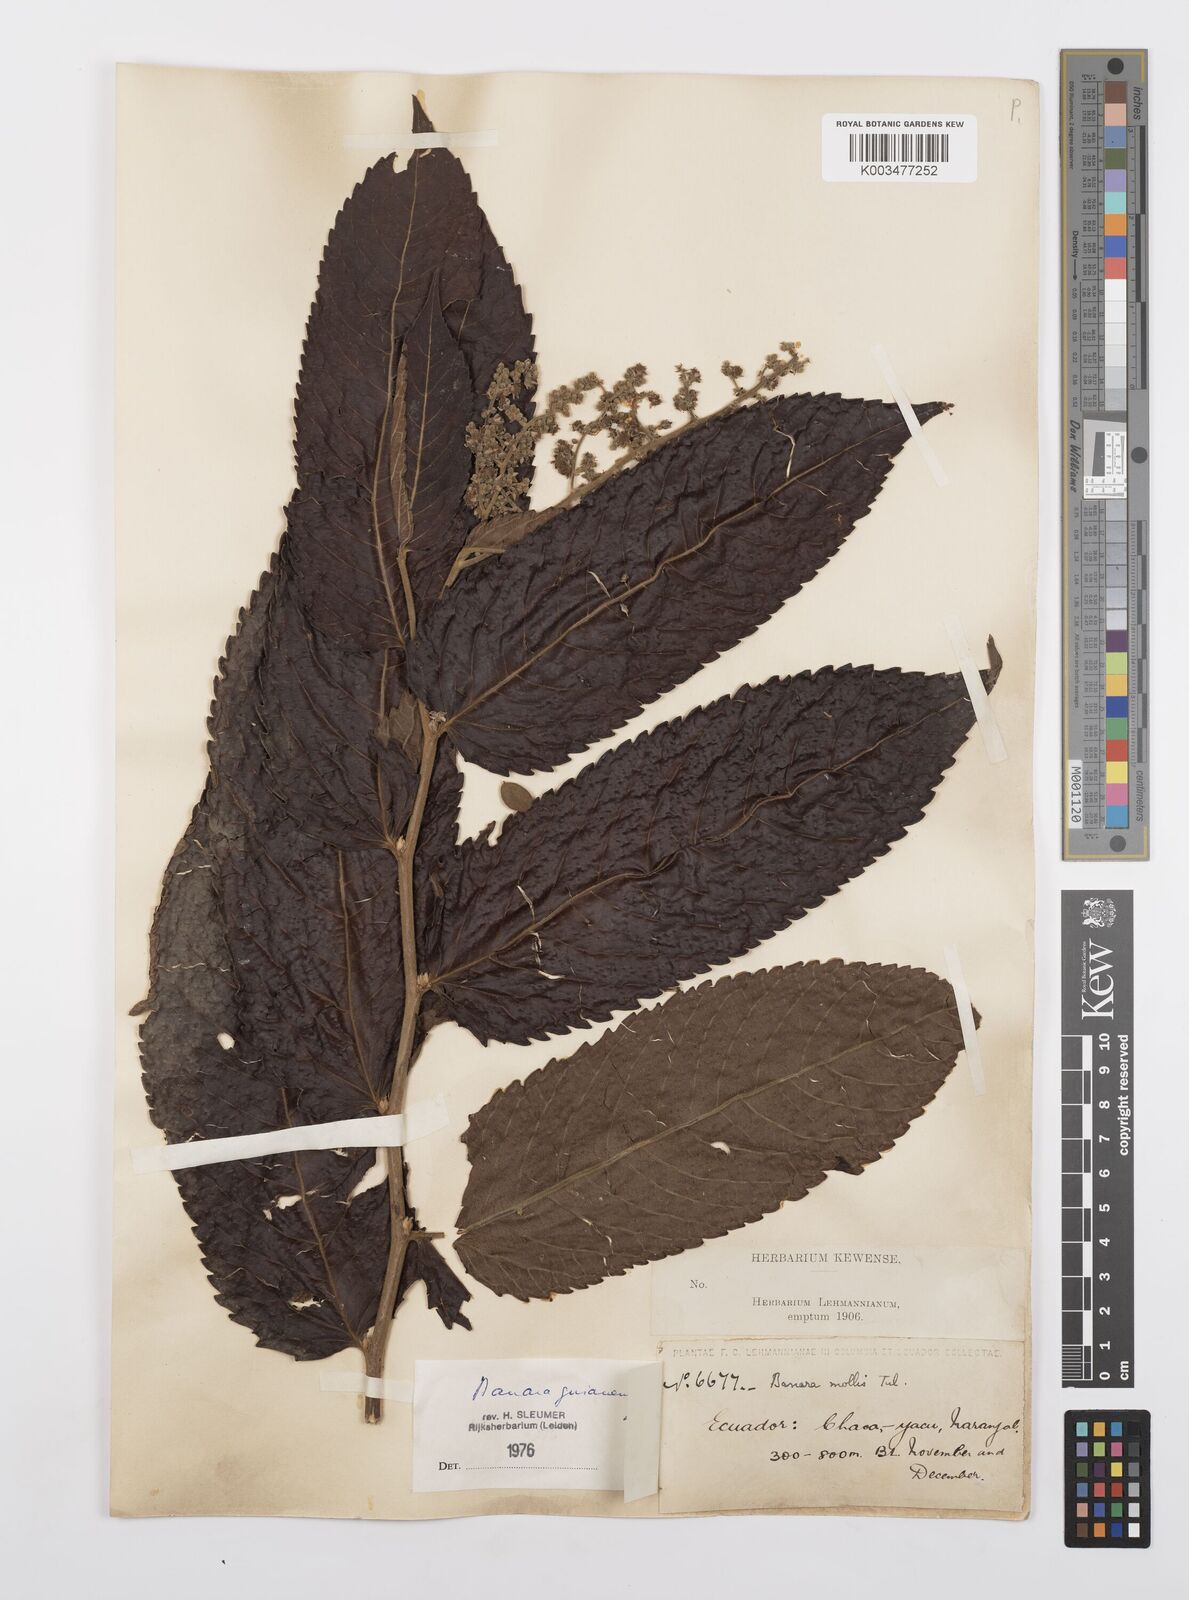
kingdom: Plantae
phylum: Tracheophyta
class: Magnoliopsida
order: Malpighiales
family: Salicaceae
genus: Banara
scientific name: Banara guianensis
